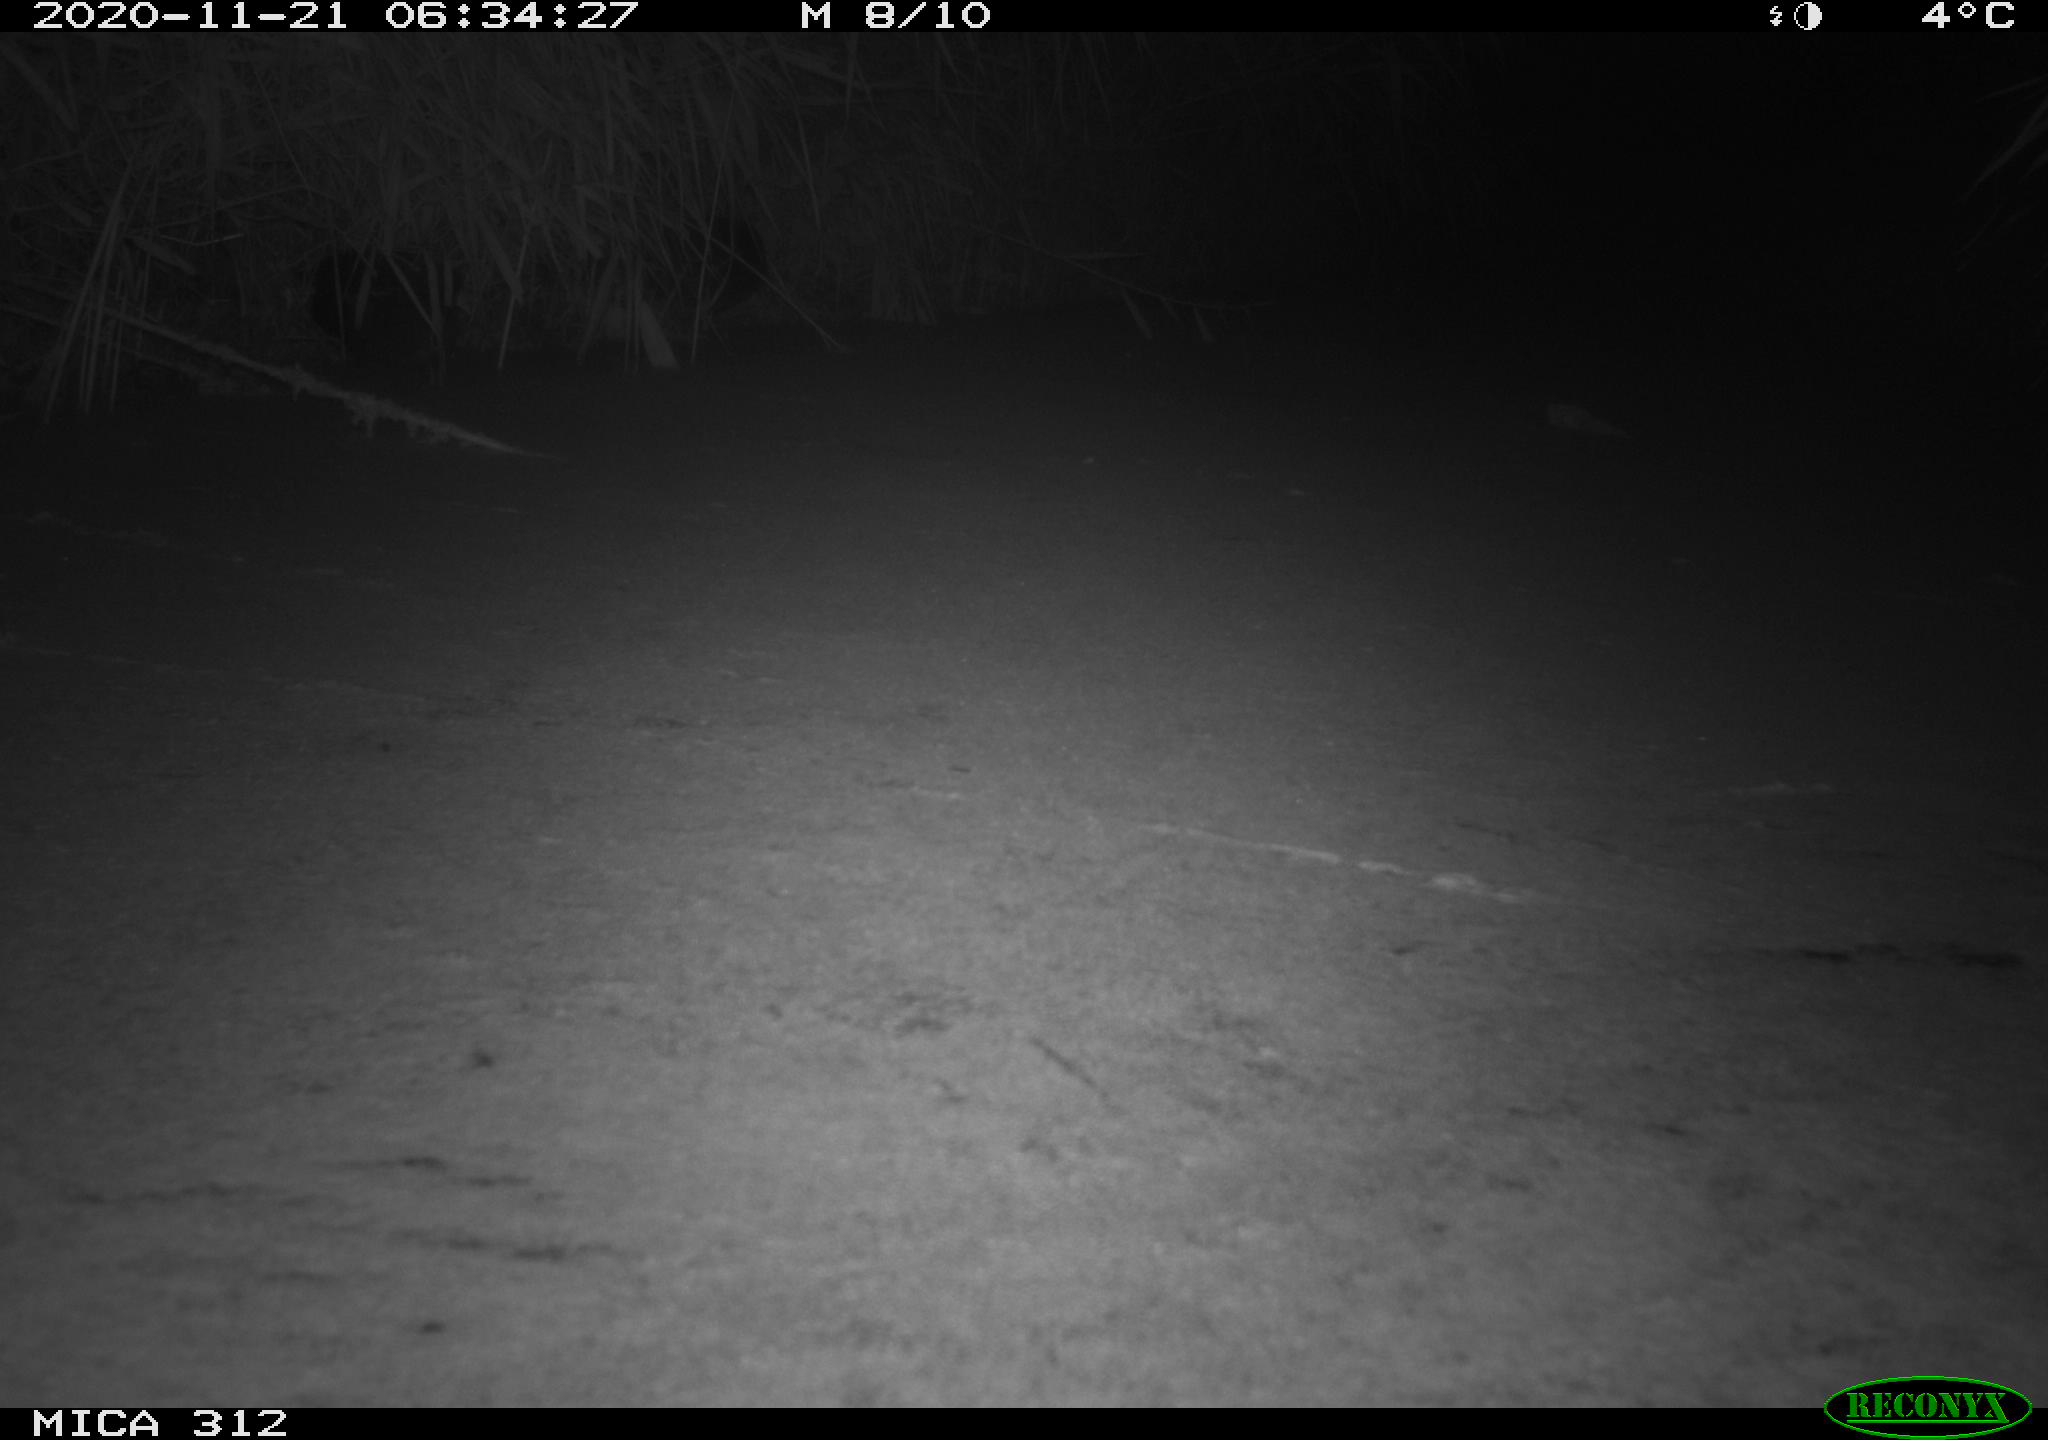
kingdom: Animalia
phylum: Chordata
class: Mammalia
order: Rodentia
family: Muridae
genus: Rattus
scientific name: Rattus norvegicus
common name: Brown rat
